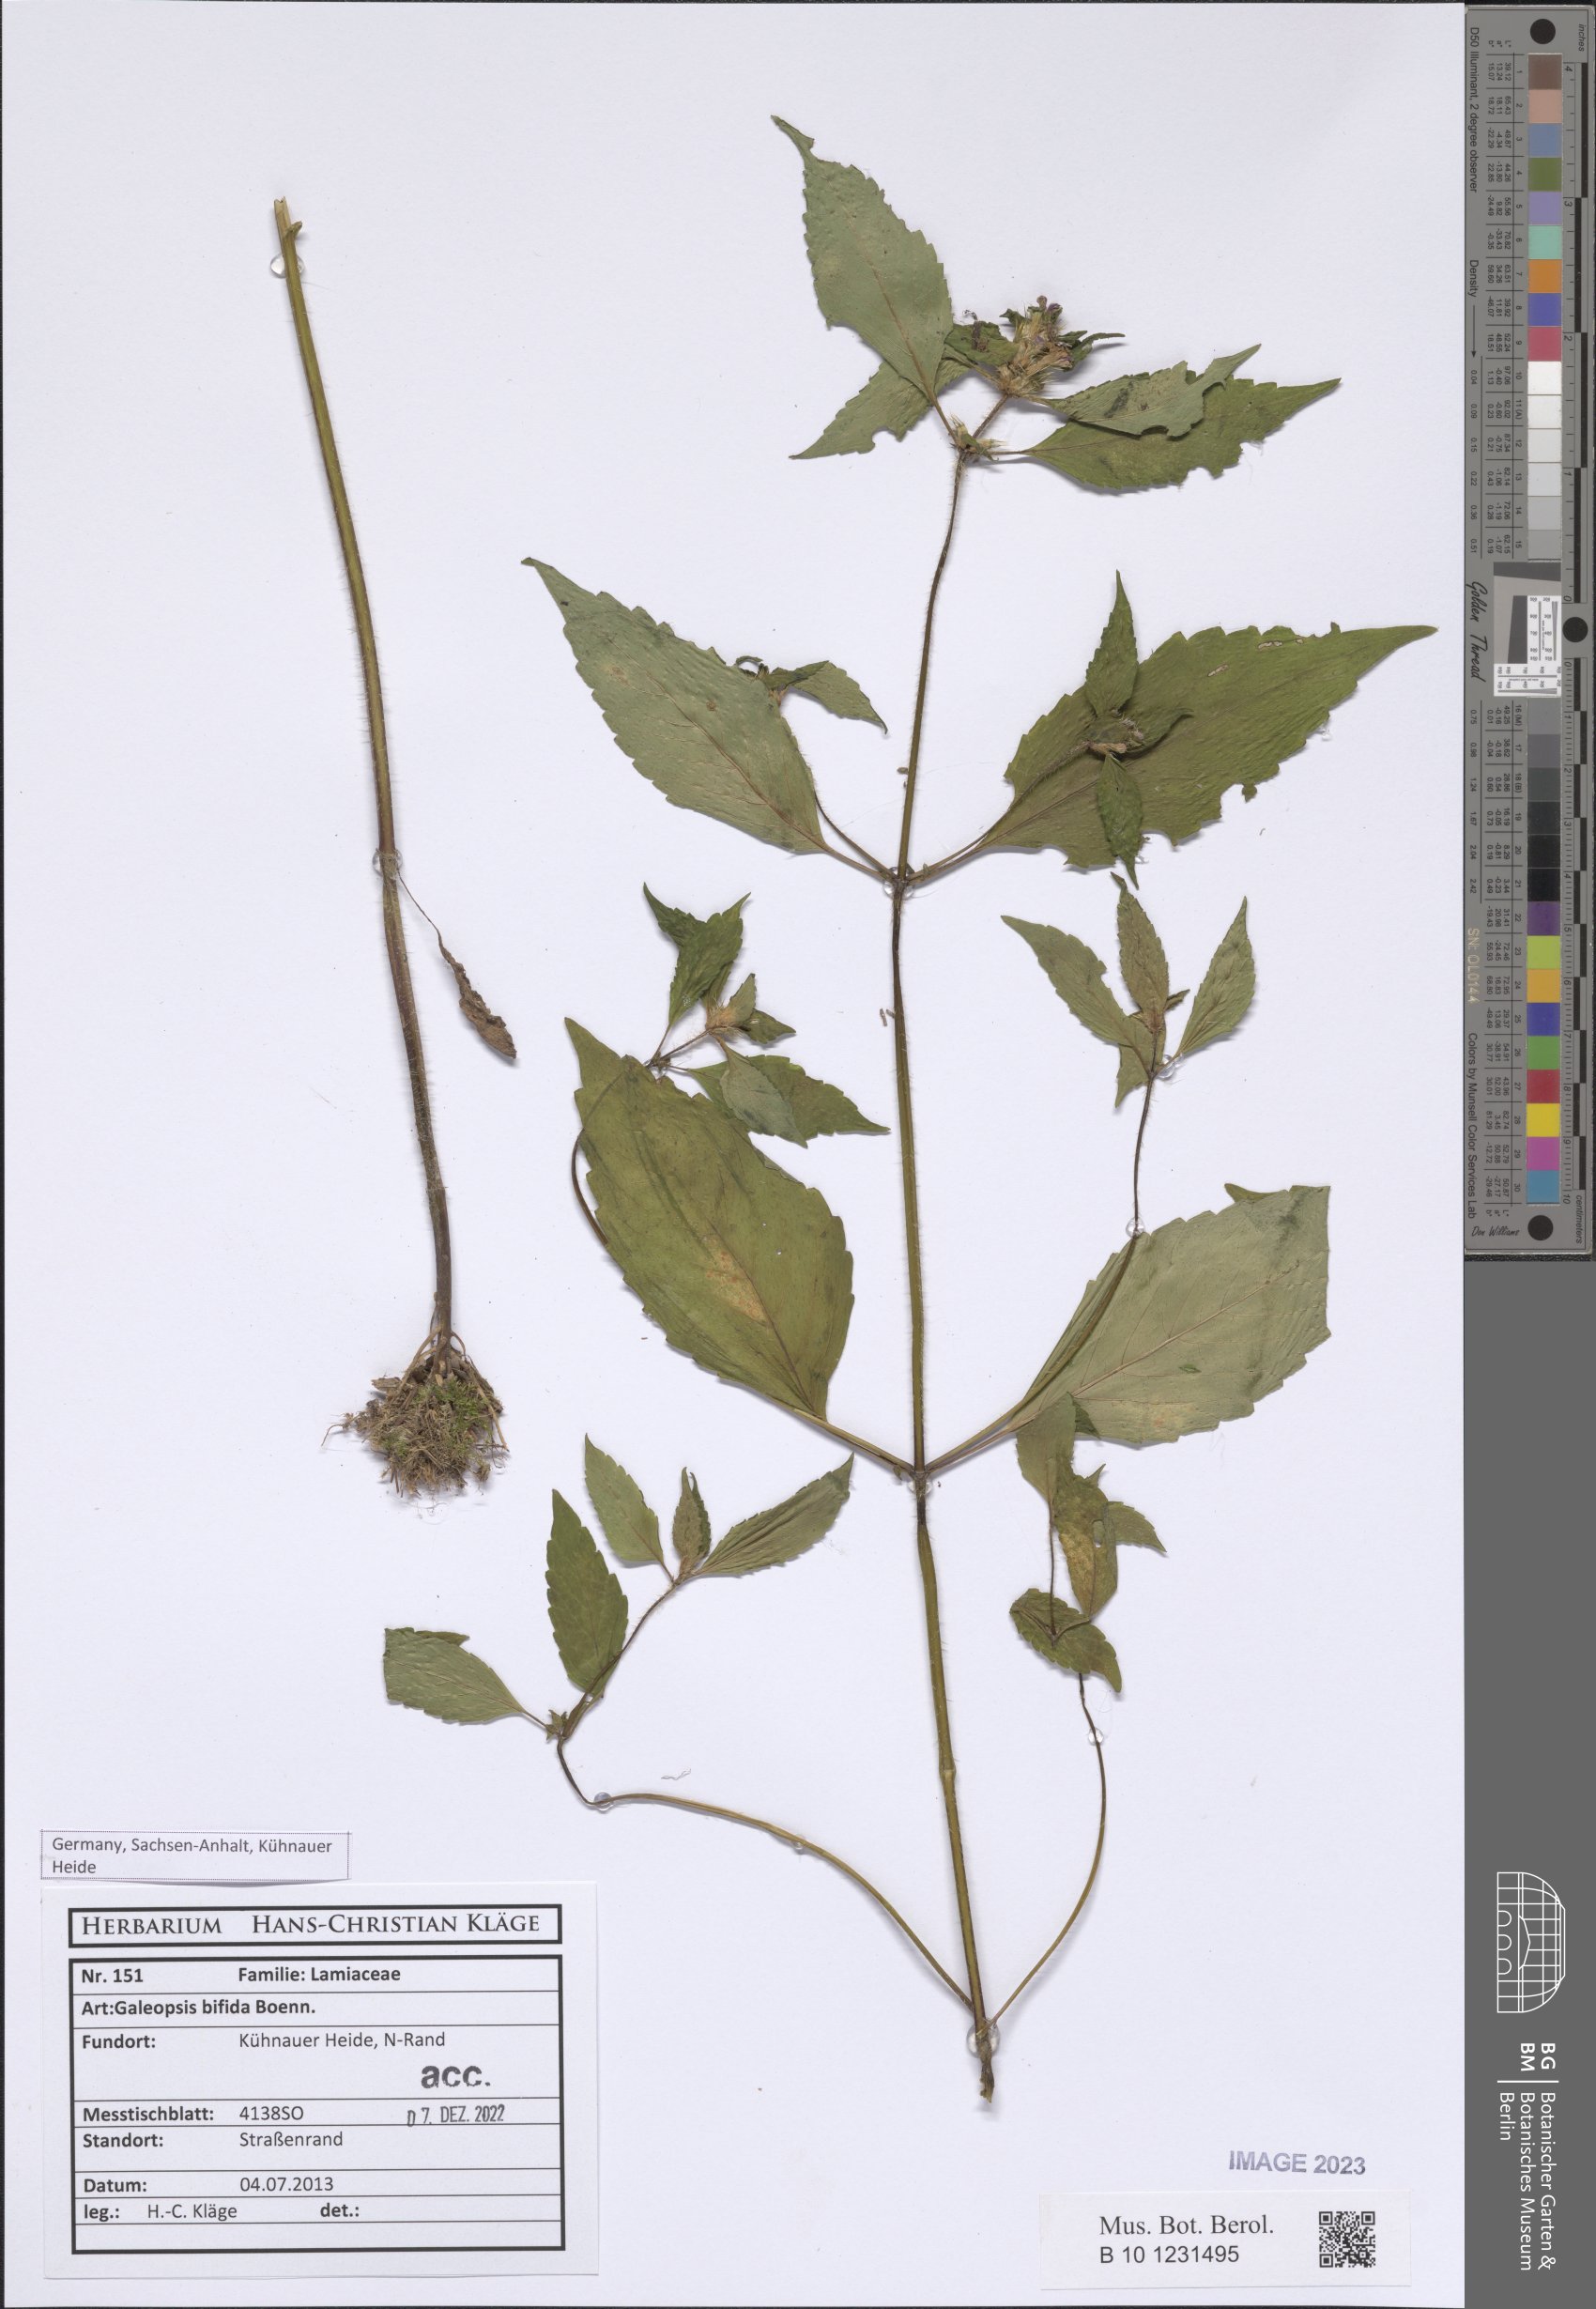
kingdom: Plantae
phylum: Tracheophyta
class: Magnoliopsida
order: Lamiales
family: Lamiaceae
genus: Galeopsis
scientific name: Galeopsis bifida
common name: Bifid hemp-nettle
